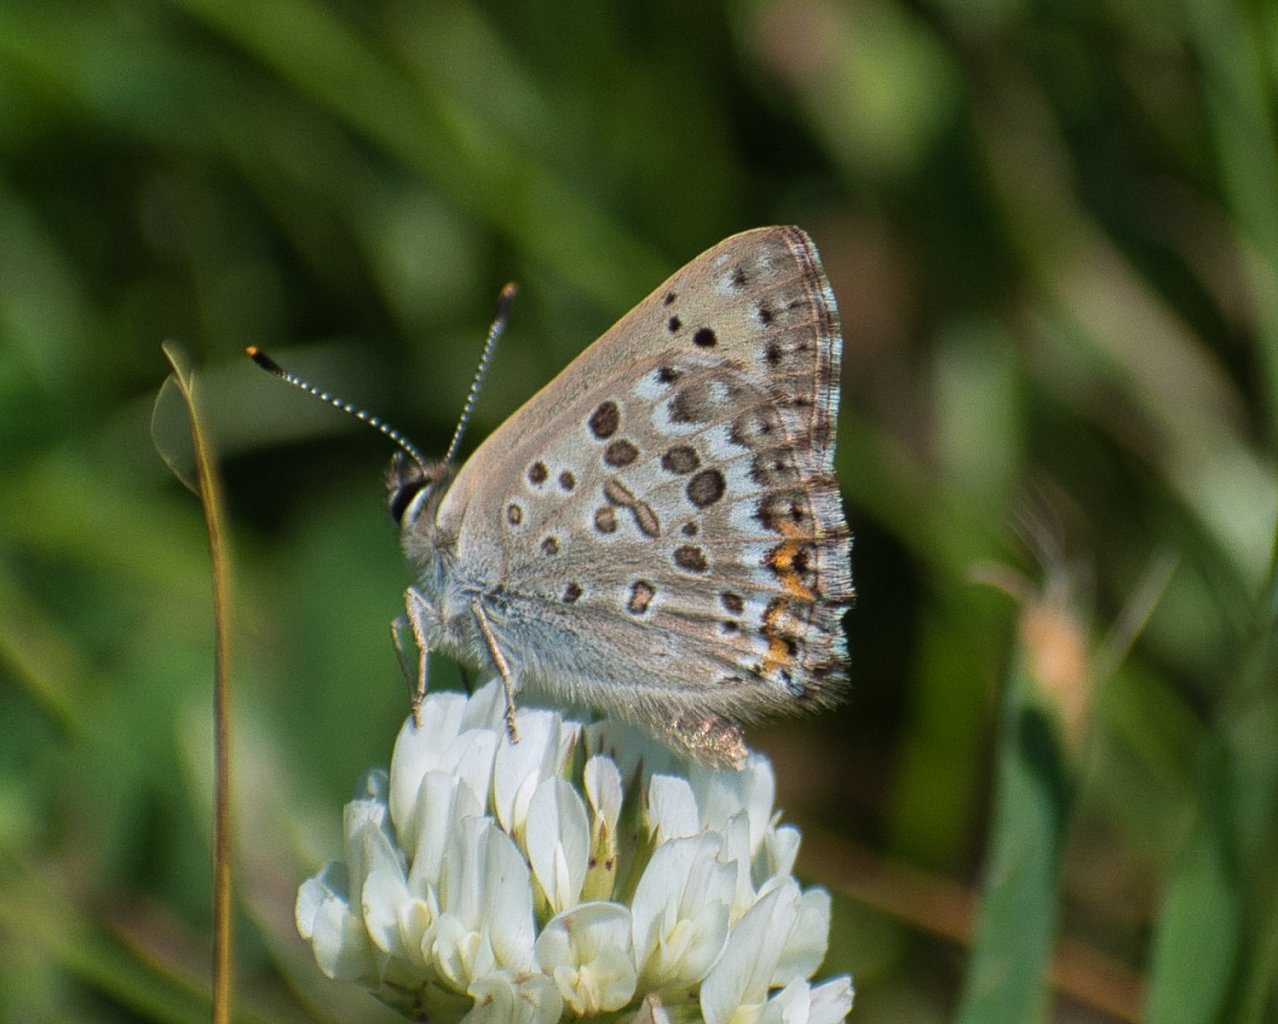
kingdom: Animalia
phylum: Arthropoda
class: Insecta
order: Lepidoptera
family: Lycaenidae
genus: Lycaena
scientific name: Lycaena editha
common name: Edith's Copper
